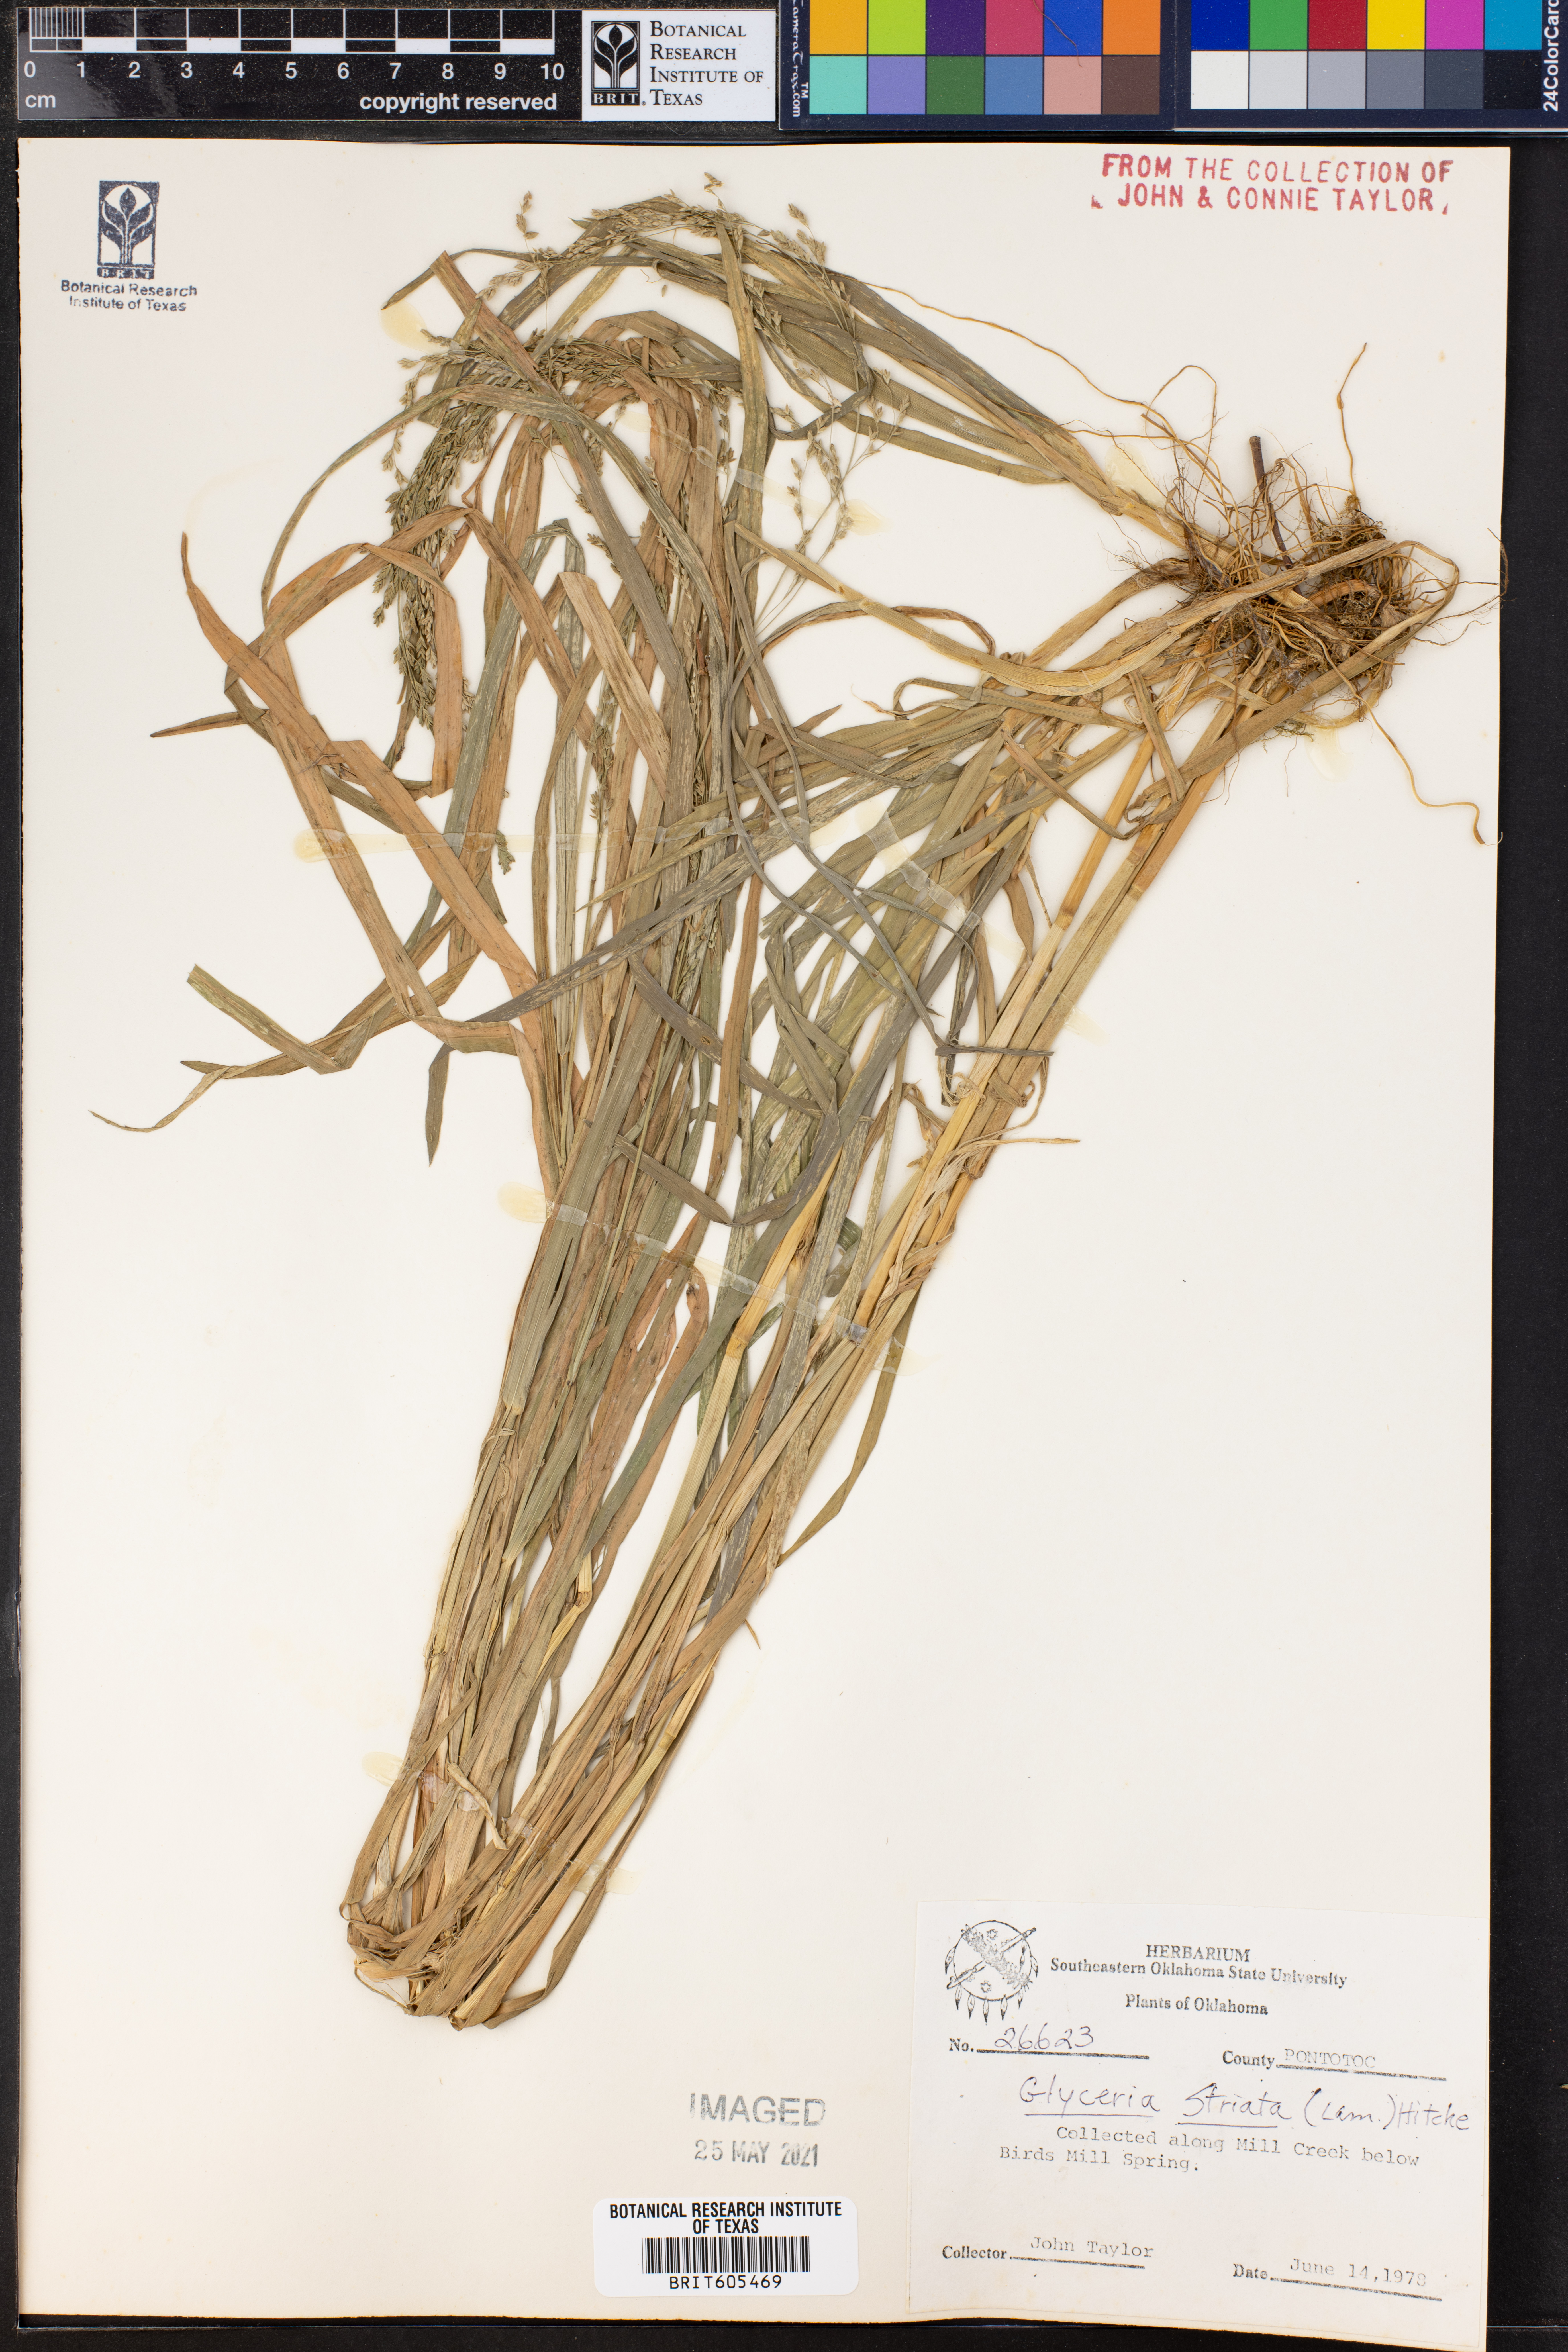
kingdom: Plantae
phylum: Tracheophyta
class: Liliopsida
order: Poales
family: Poaceae
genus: Glyceria
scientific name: Glyceria striata
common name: Fowl manna grass
